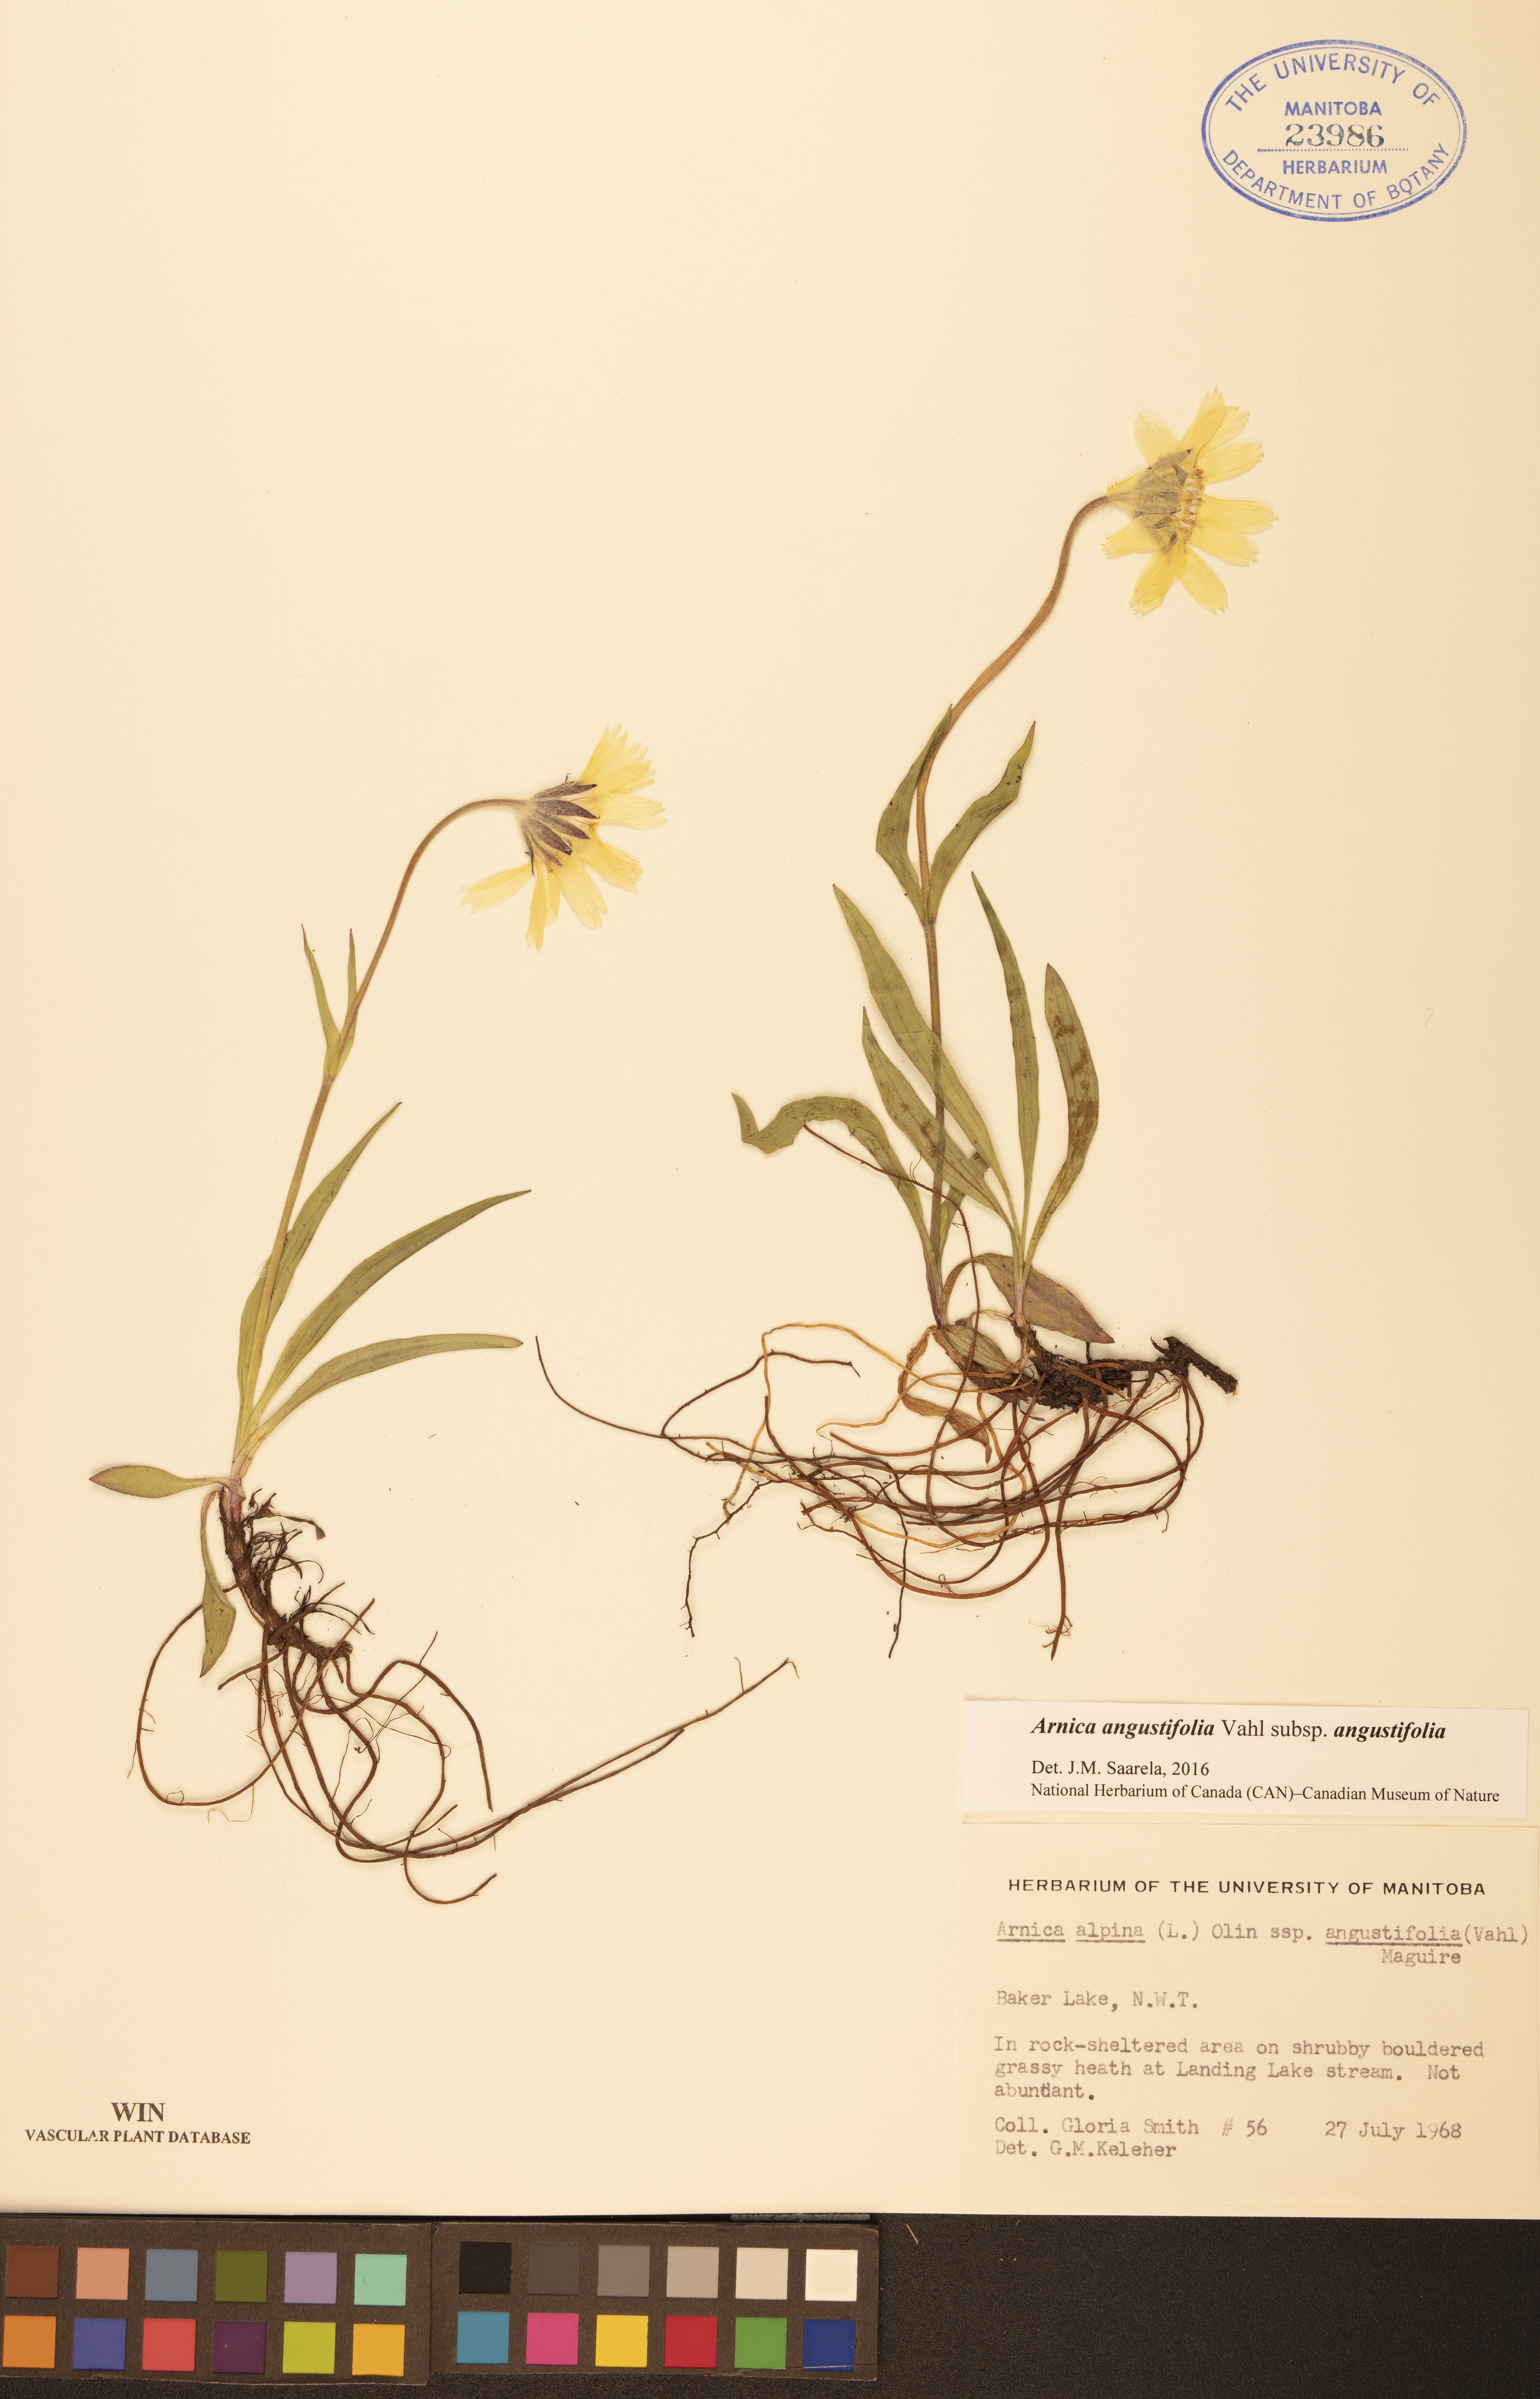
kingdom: Plantae
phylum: Tracheophyta
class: Magnoliopsida
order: Asterales
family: Asteraceae
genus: Arnica
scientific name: Arnica angustifolia
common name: Arctic arnica
